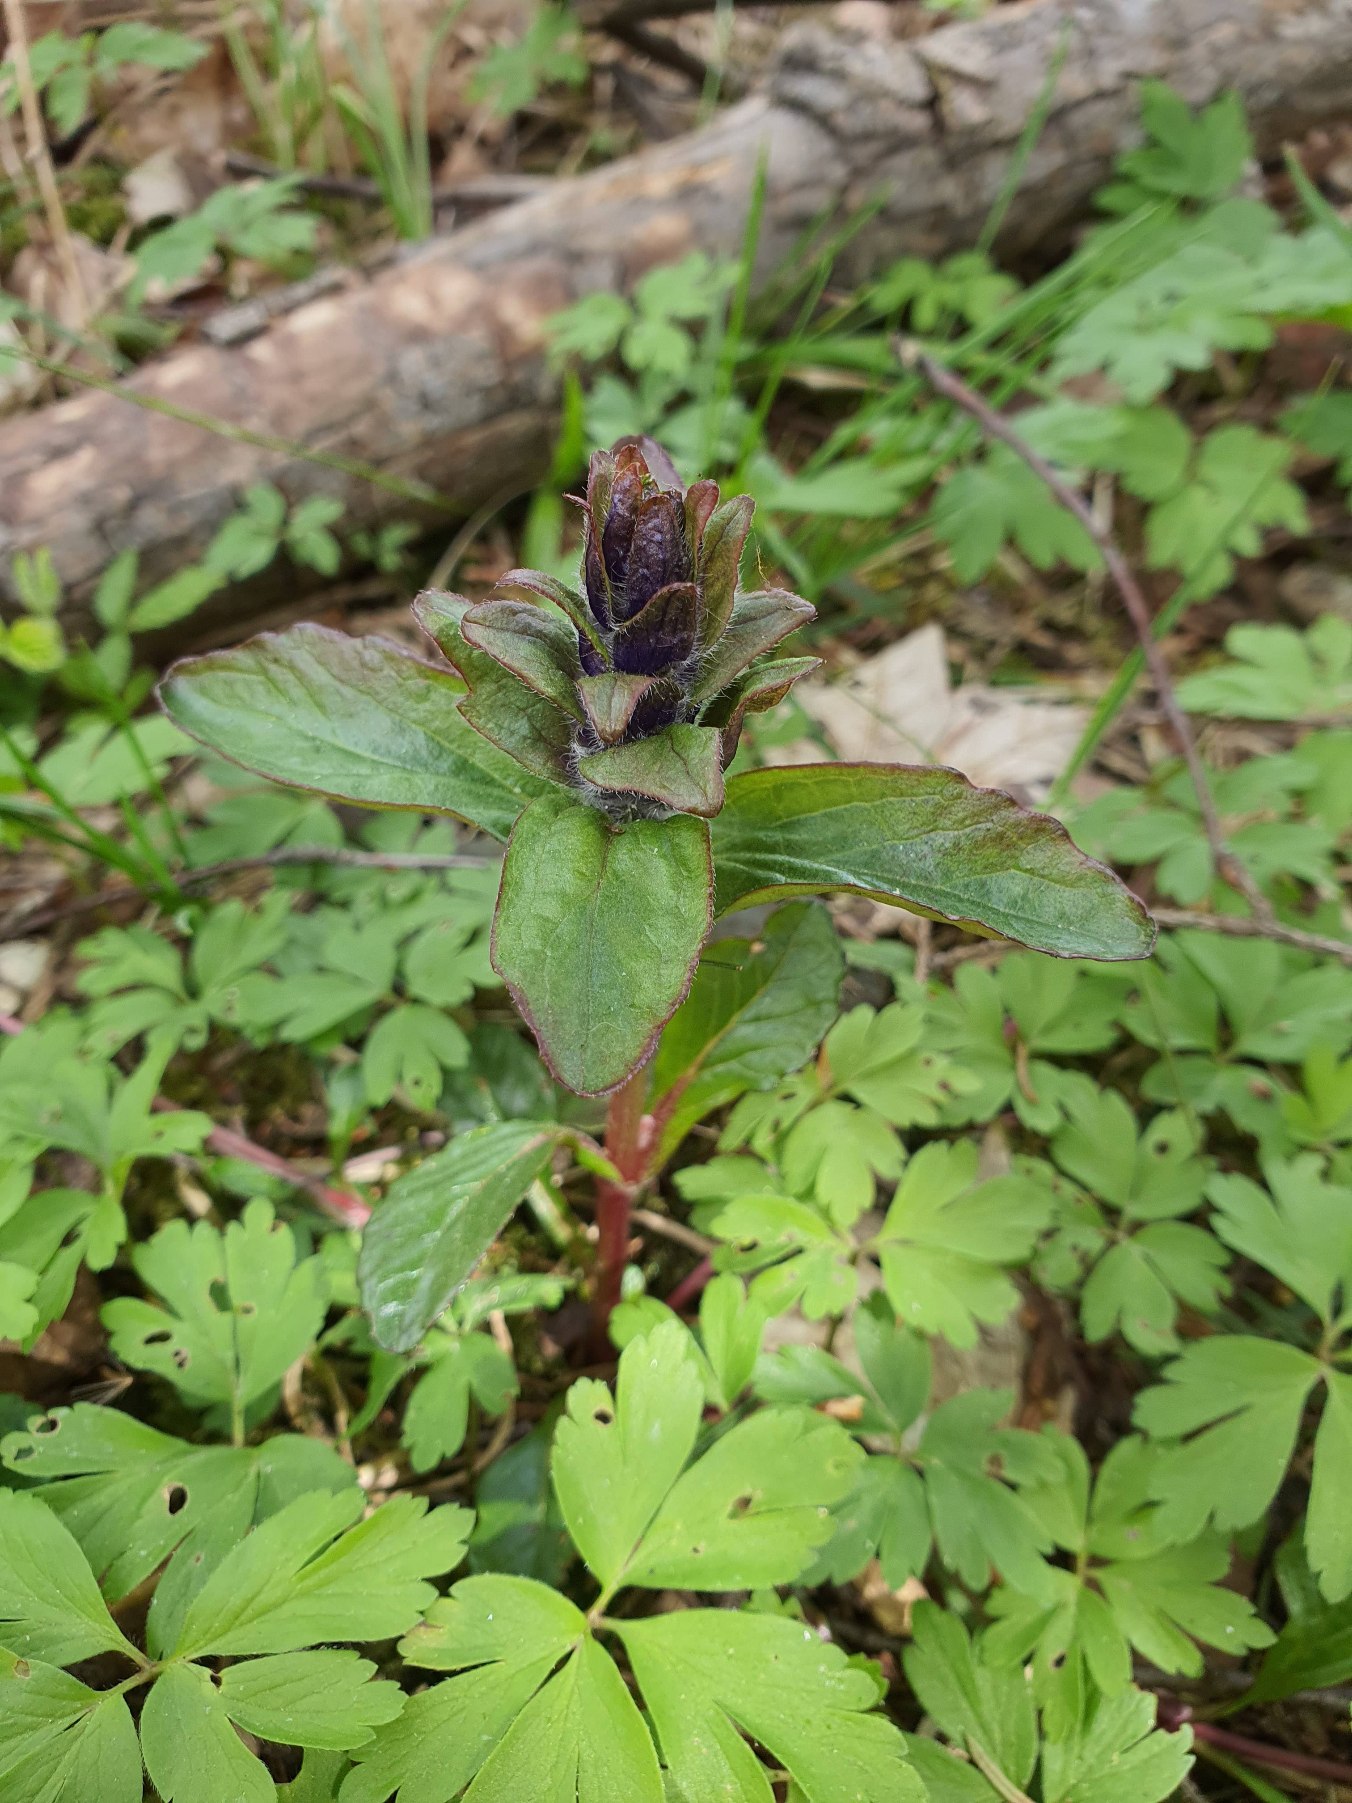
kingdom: Plantae
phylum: Tracheophyta
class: Magnoliopsida
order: Lamiales
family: Lamiaceae
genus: Ajuga
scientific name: Ajuga reptans
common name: Krybende læbeløs
